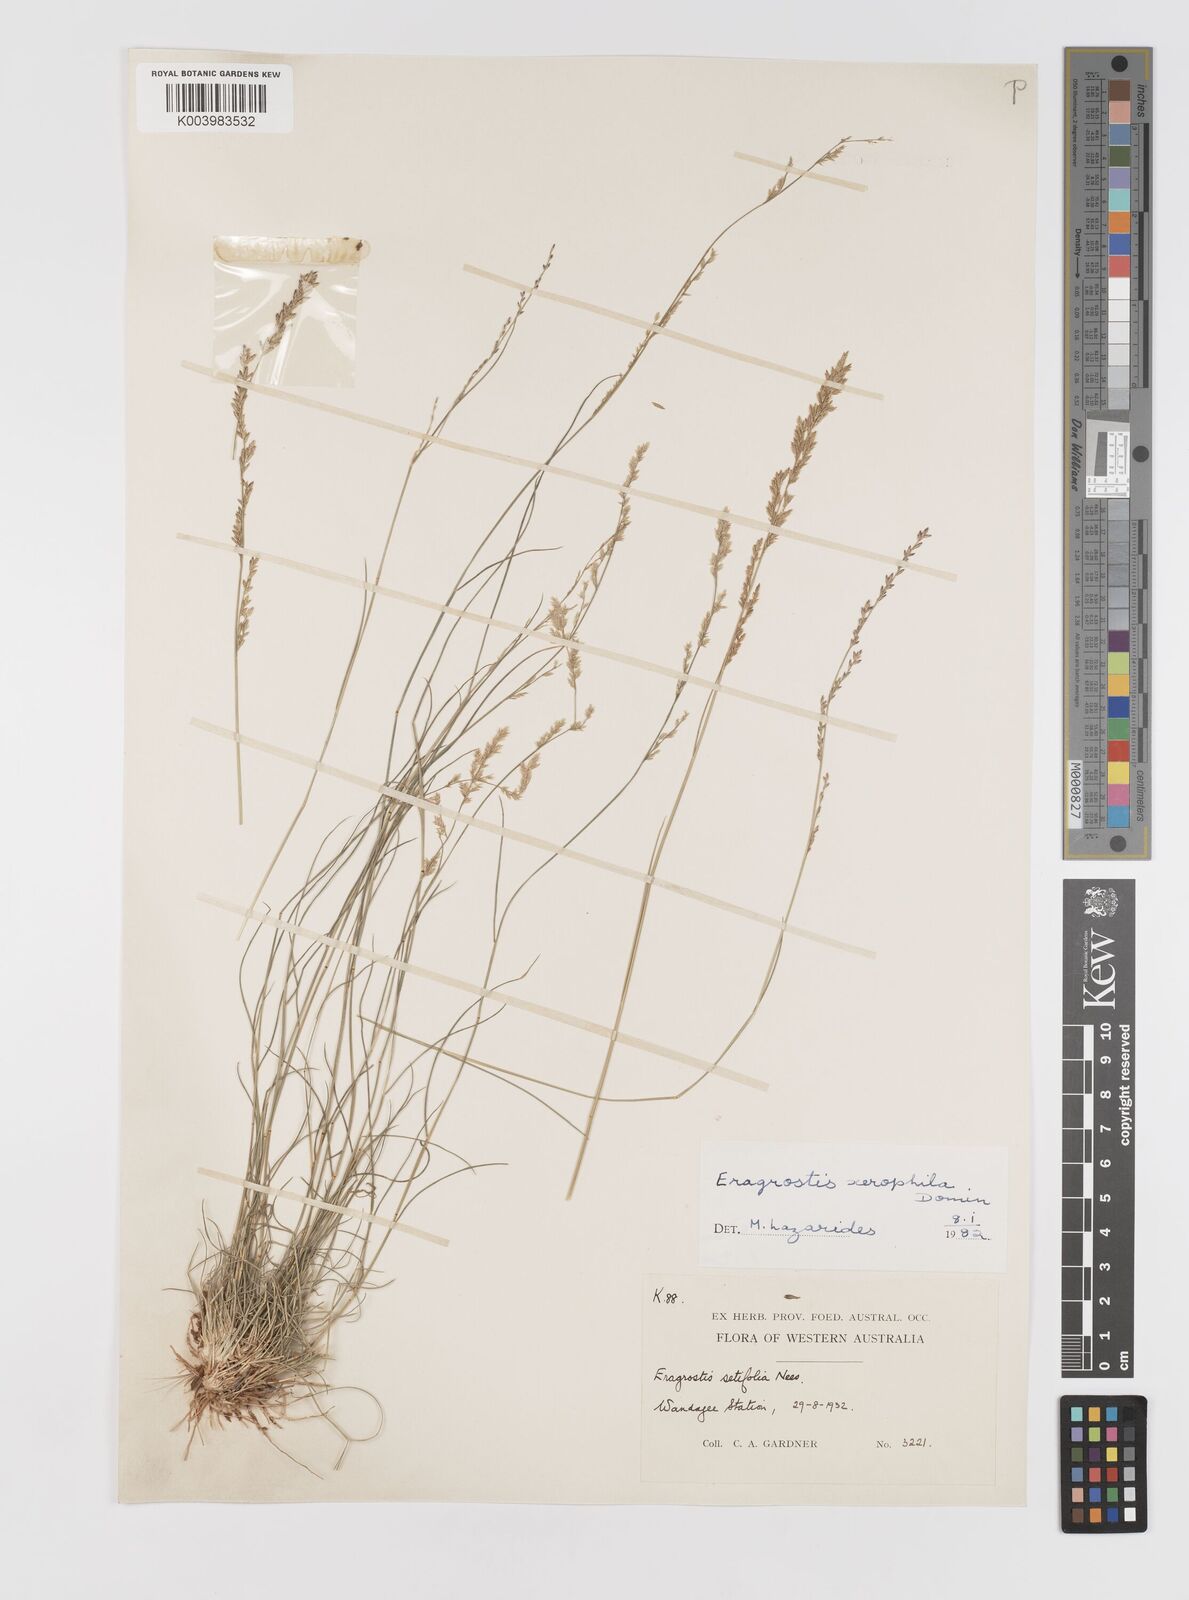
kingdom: Plantae
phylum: Tracheophyta
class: Liliopsida
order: Poales
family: Poaceae
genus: Eragrostis
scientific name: Eragrostis xerophila
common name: Wire wandarrie grass
